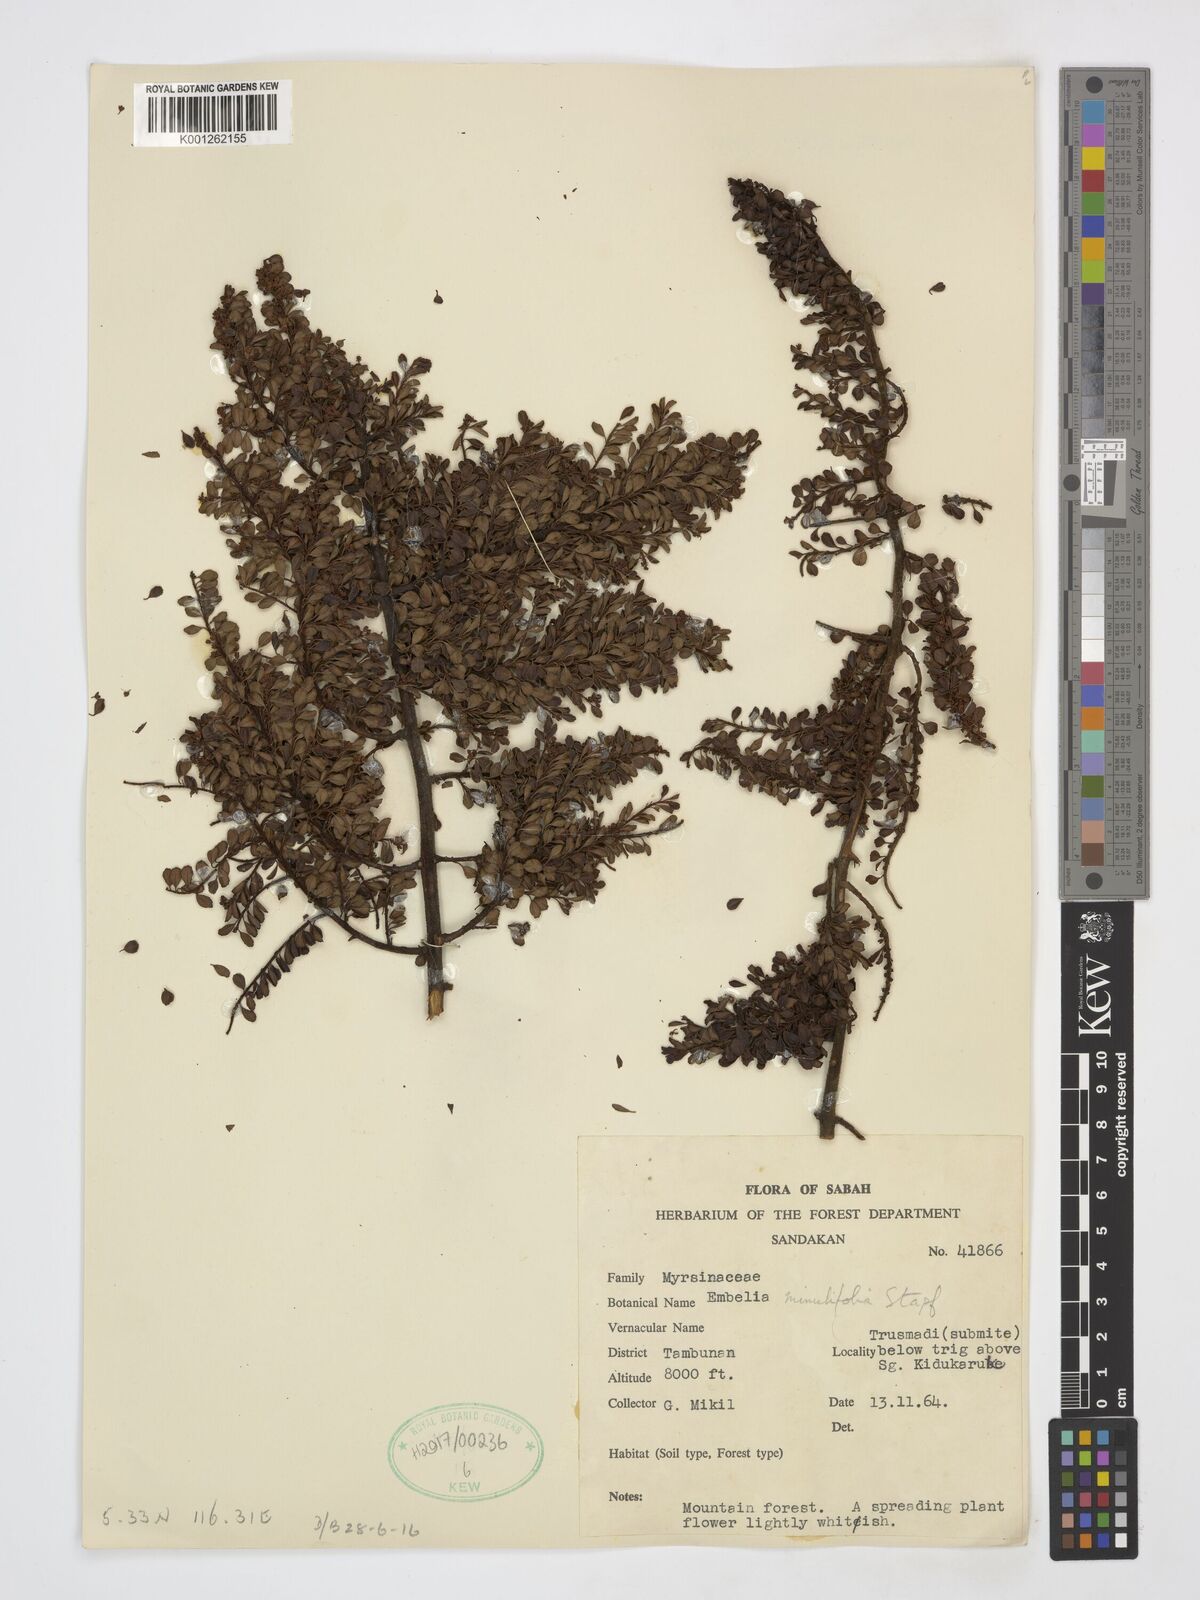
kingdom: Plantae
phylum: Tracheophyta
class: Magnoliopsida
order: Ericales
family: Primulaceae
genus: Embelia
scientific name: Embelia minutifolia
